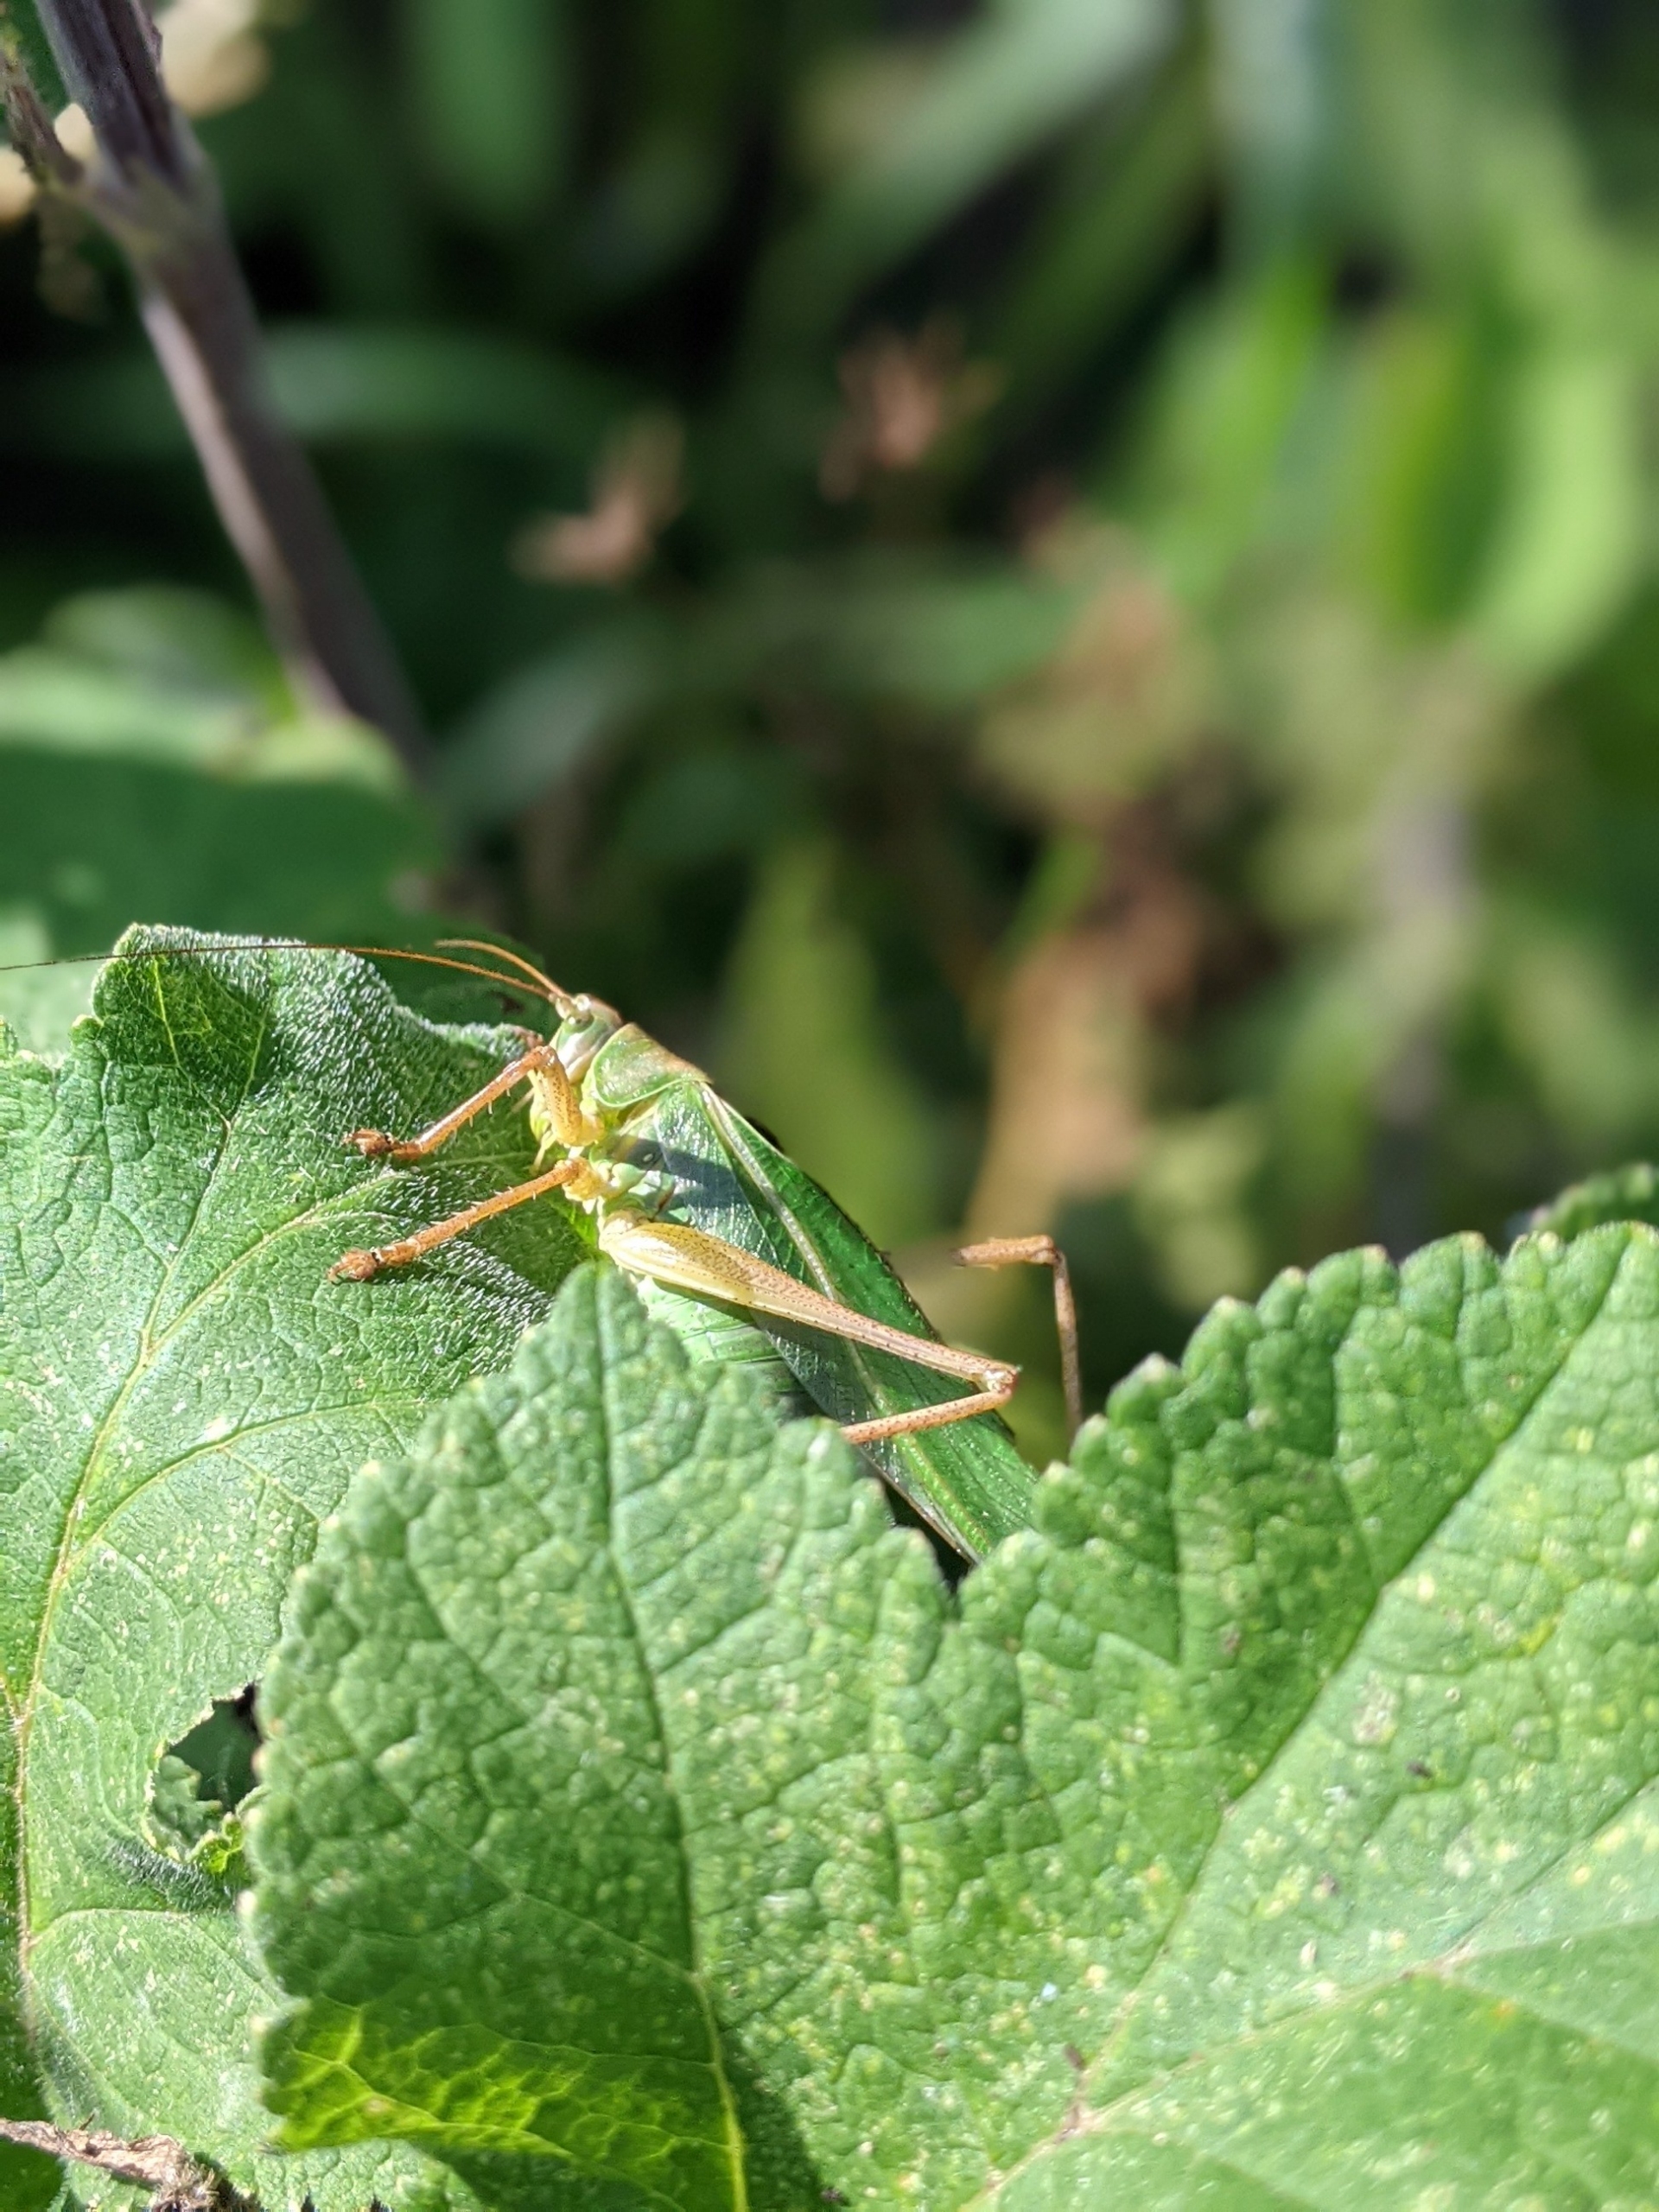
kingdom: Animalia
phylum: Arthropoda
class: Insecta
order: Orthoptera
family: Tettigoniidae
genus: Tettigonia
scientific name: Tettigonia viridissima
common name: Stor grøn løvgræshoppe
